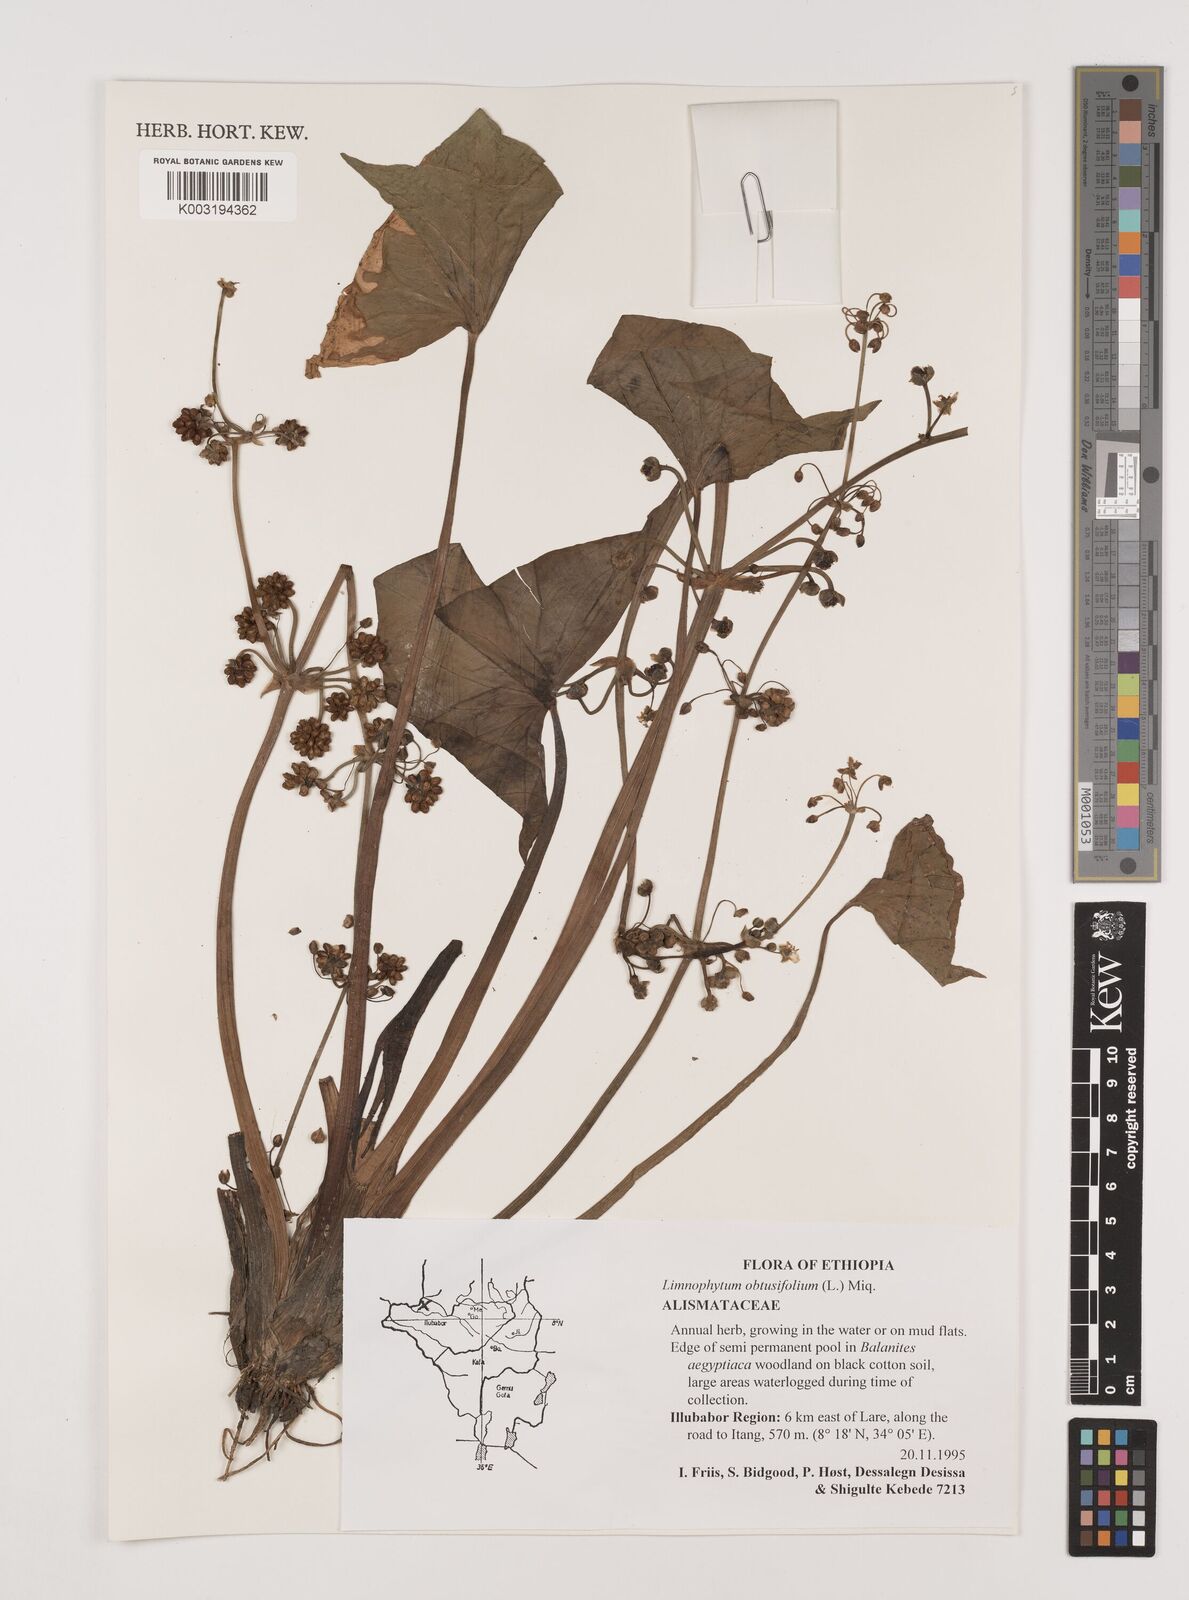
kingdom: Plantae
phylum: Tracheophyta
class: Liliopsida
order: Alismatales
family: Alismataceae
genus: Limnophyton
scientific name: Limnophyton obtusifolium
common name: Arrow head
